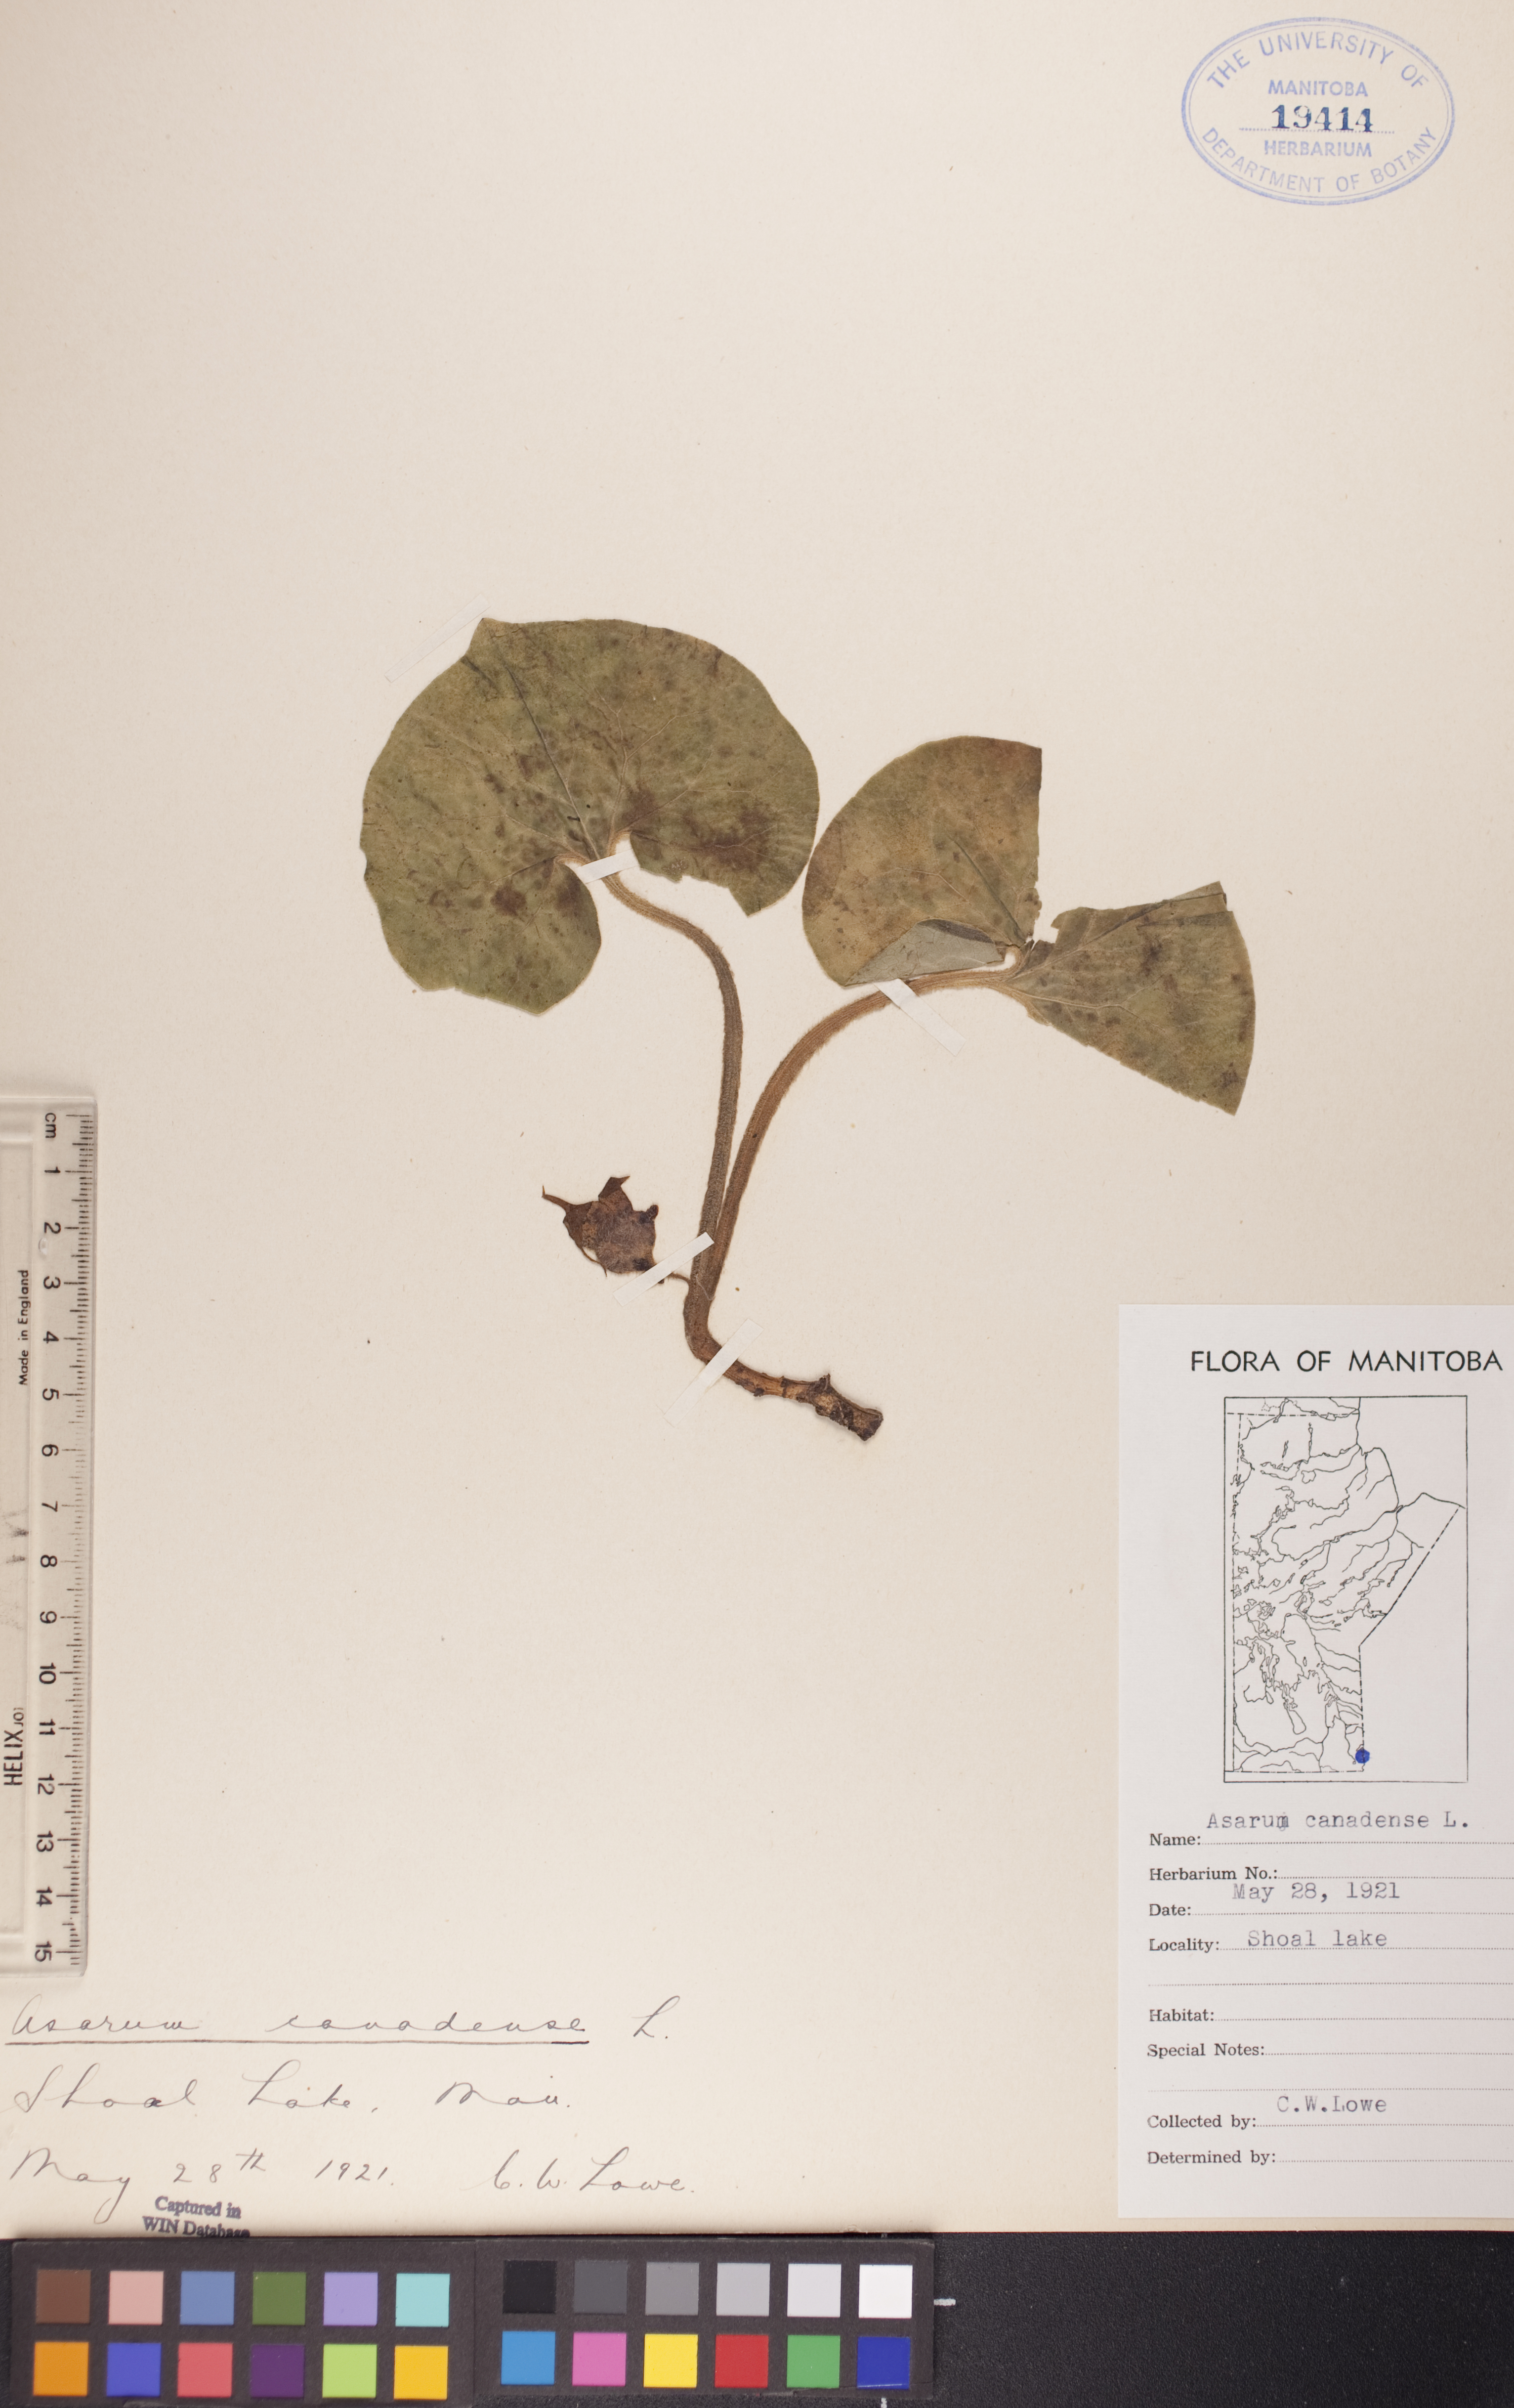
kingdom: Plantae
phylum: Tracheophyta
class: Magnoliopsida
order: Piperales
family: Aristolochiaceae
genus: Asarum
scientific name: Asarum canadense
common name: Wild ginger
